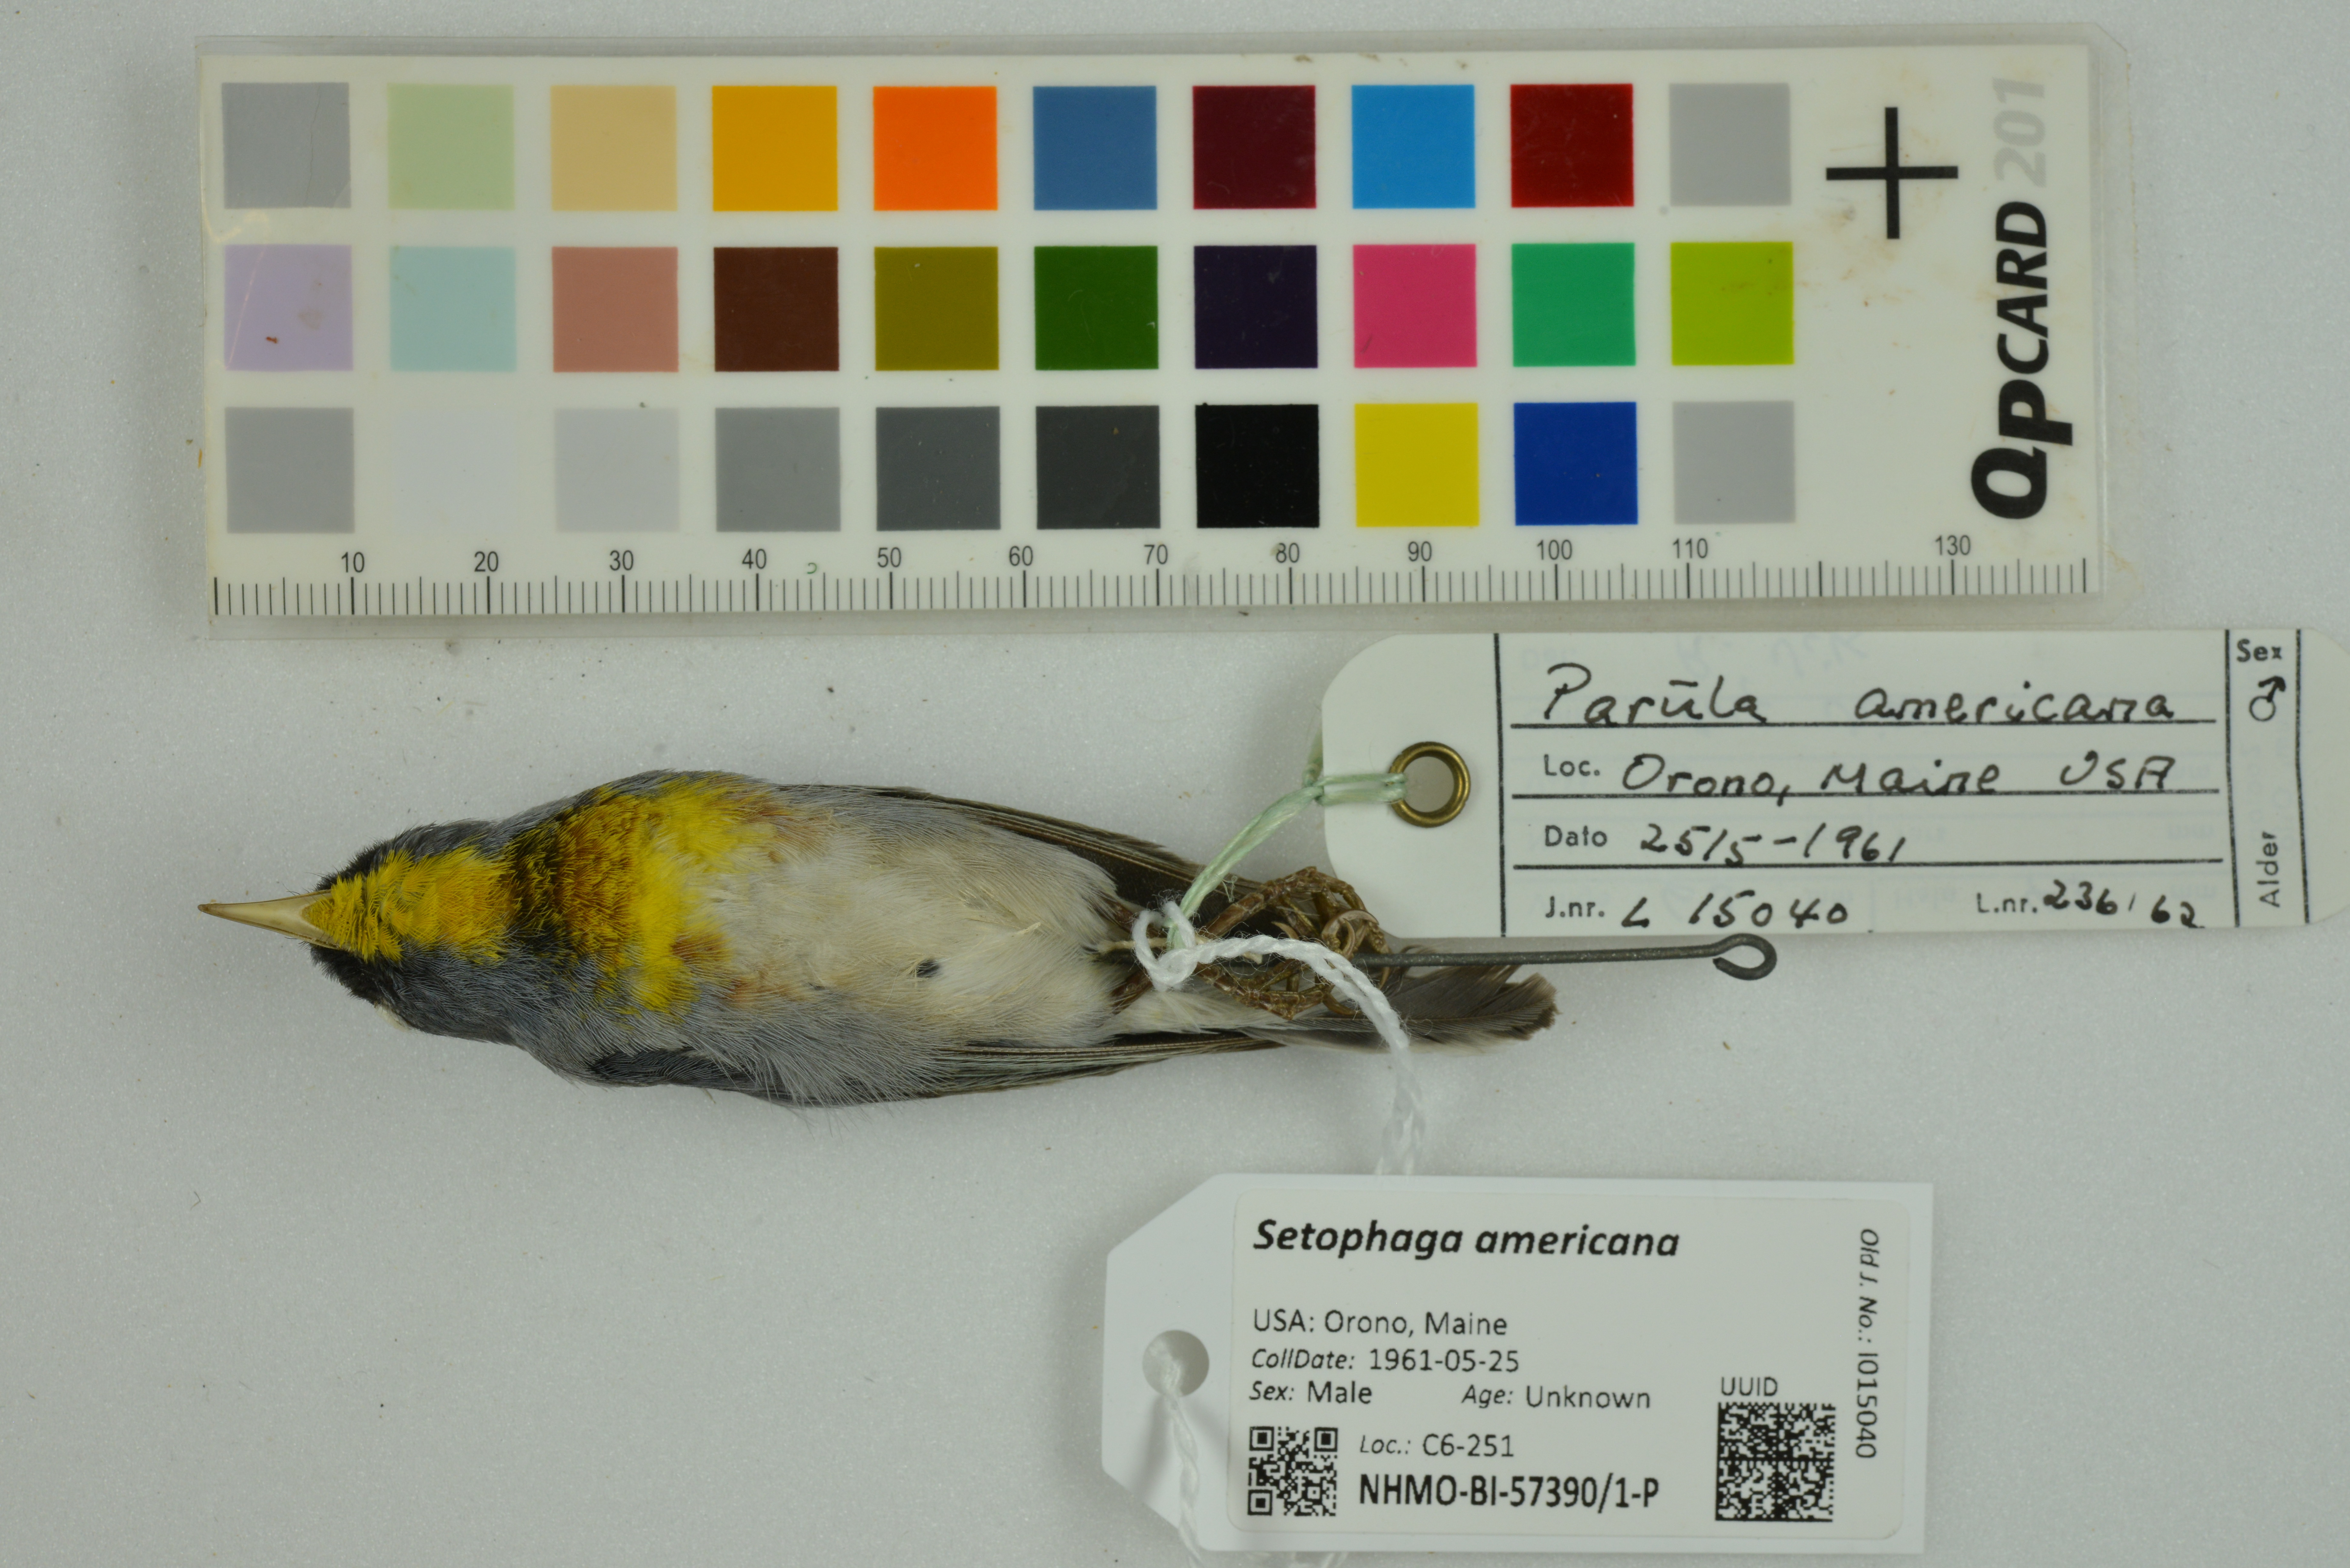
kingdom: Animalia
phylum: Chordata
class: Aves
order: Passeriformes
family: Parulidae
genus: Setophaga
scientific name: Setophaga americana
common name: Northern parula
